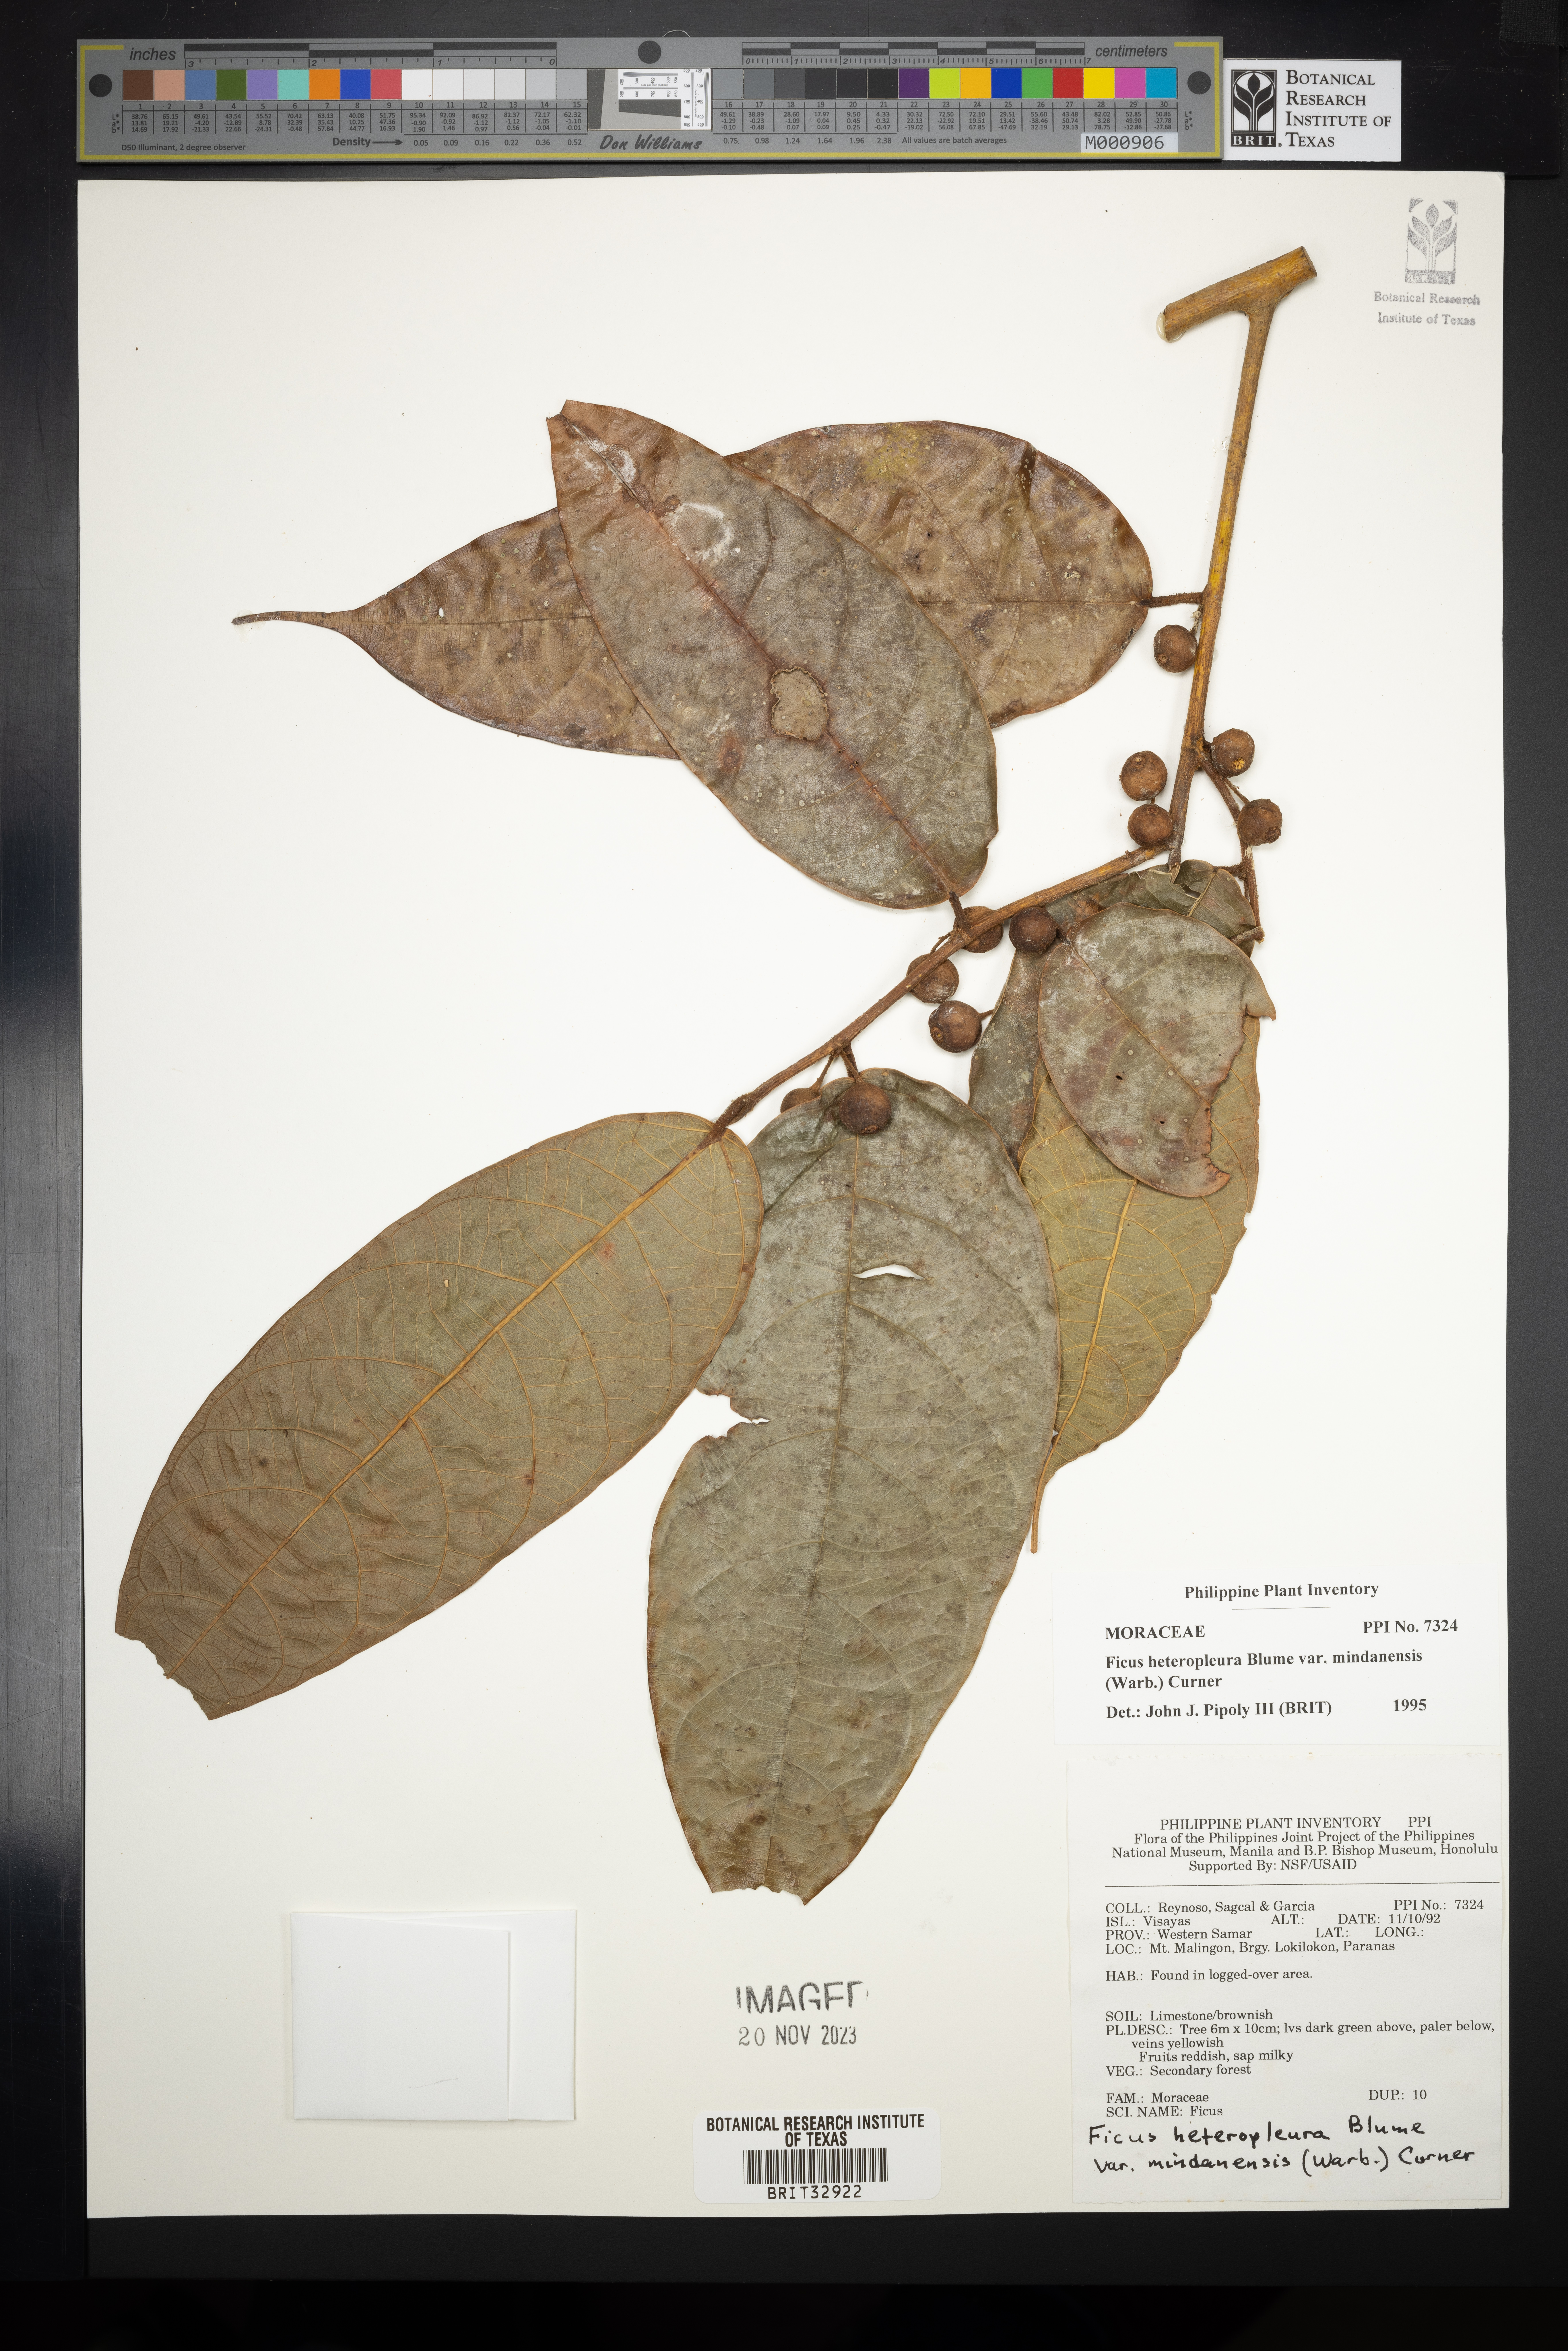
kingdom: Plantae
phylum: Tracheophyta
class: Magnoliopsida
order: Rosales
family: Moraceae
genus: Ficus
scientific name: Ficus heteropleura
